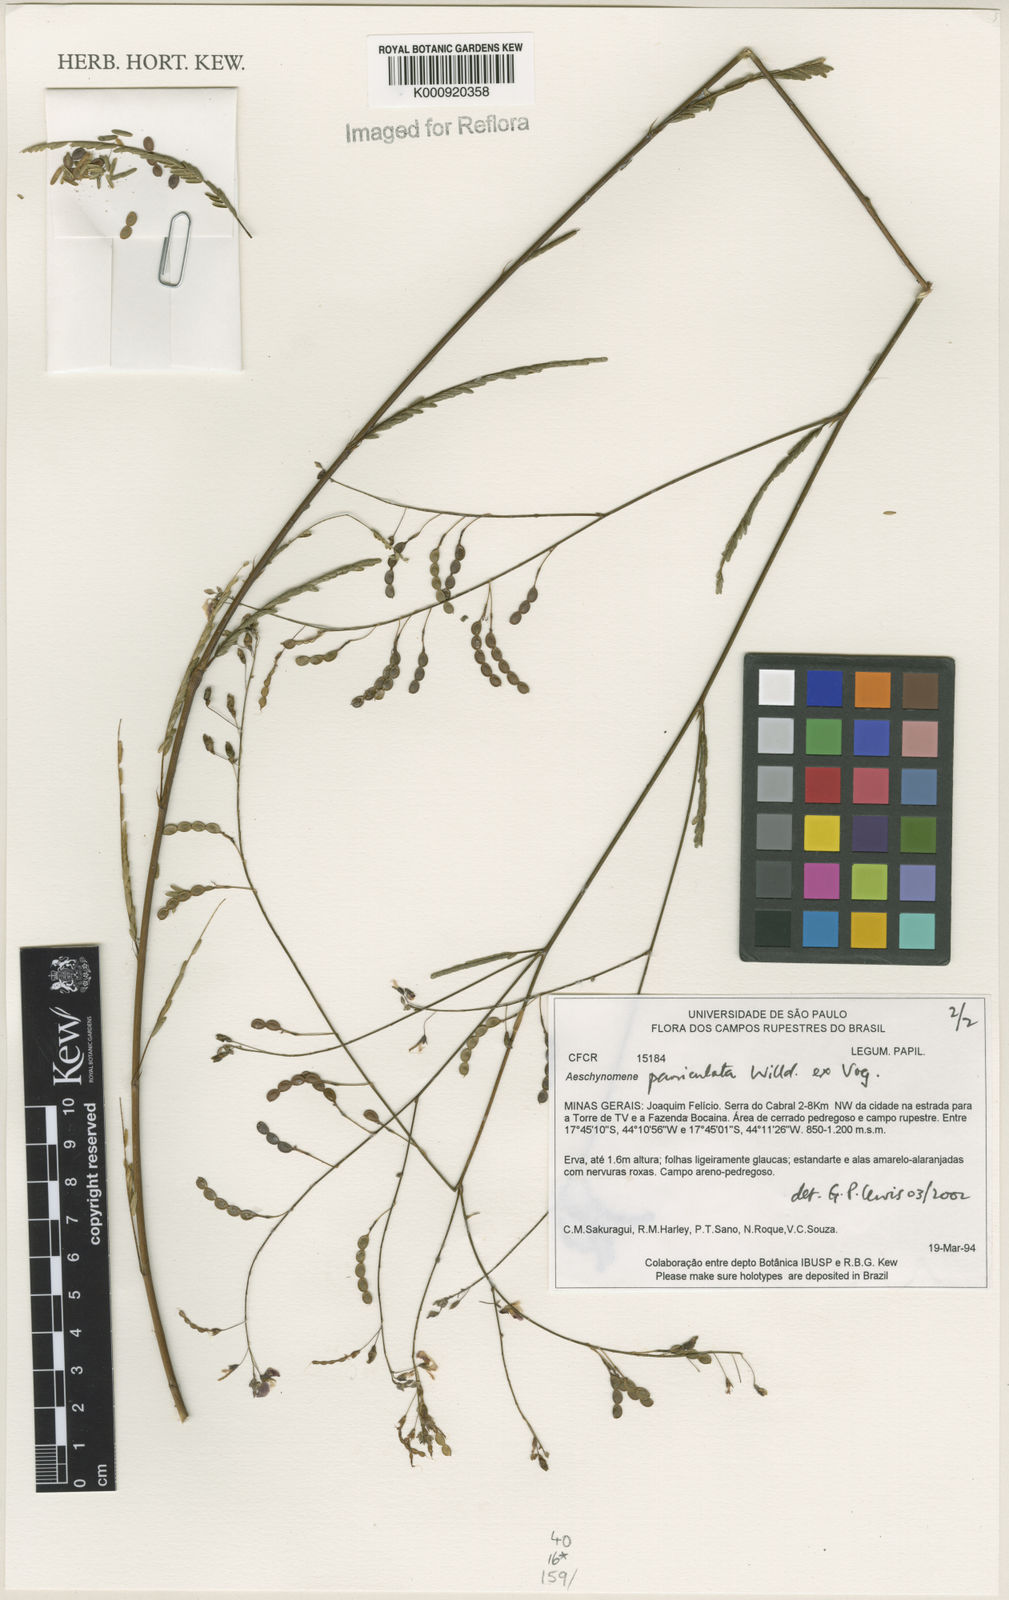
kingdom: Plantae
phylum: Tracheophyta
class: Magnoliopsida
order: Fabales
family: Fabaceae
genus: Ctenodon
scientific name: Ctenodon paniculatus
